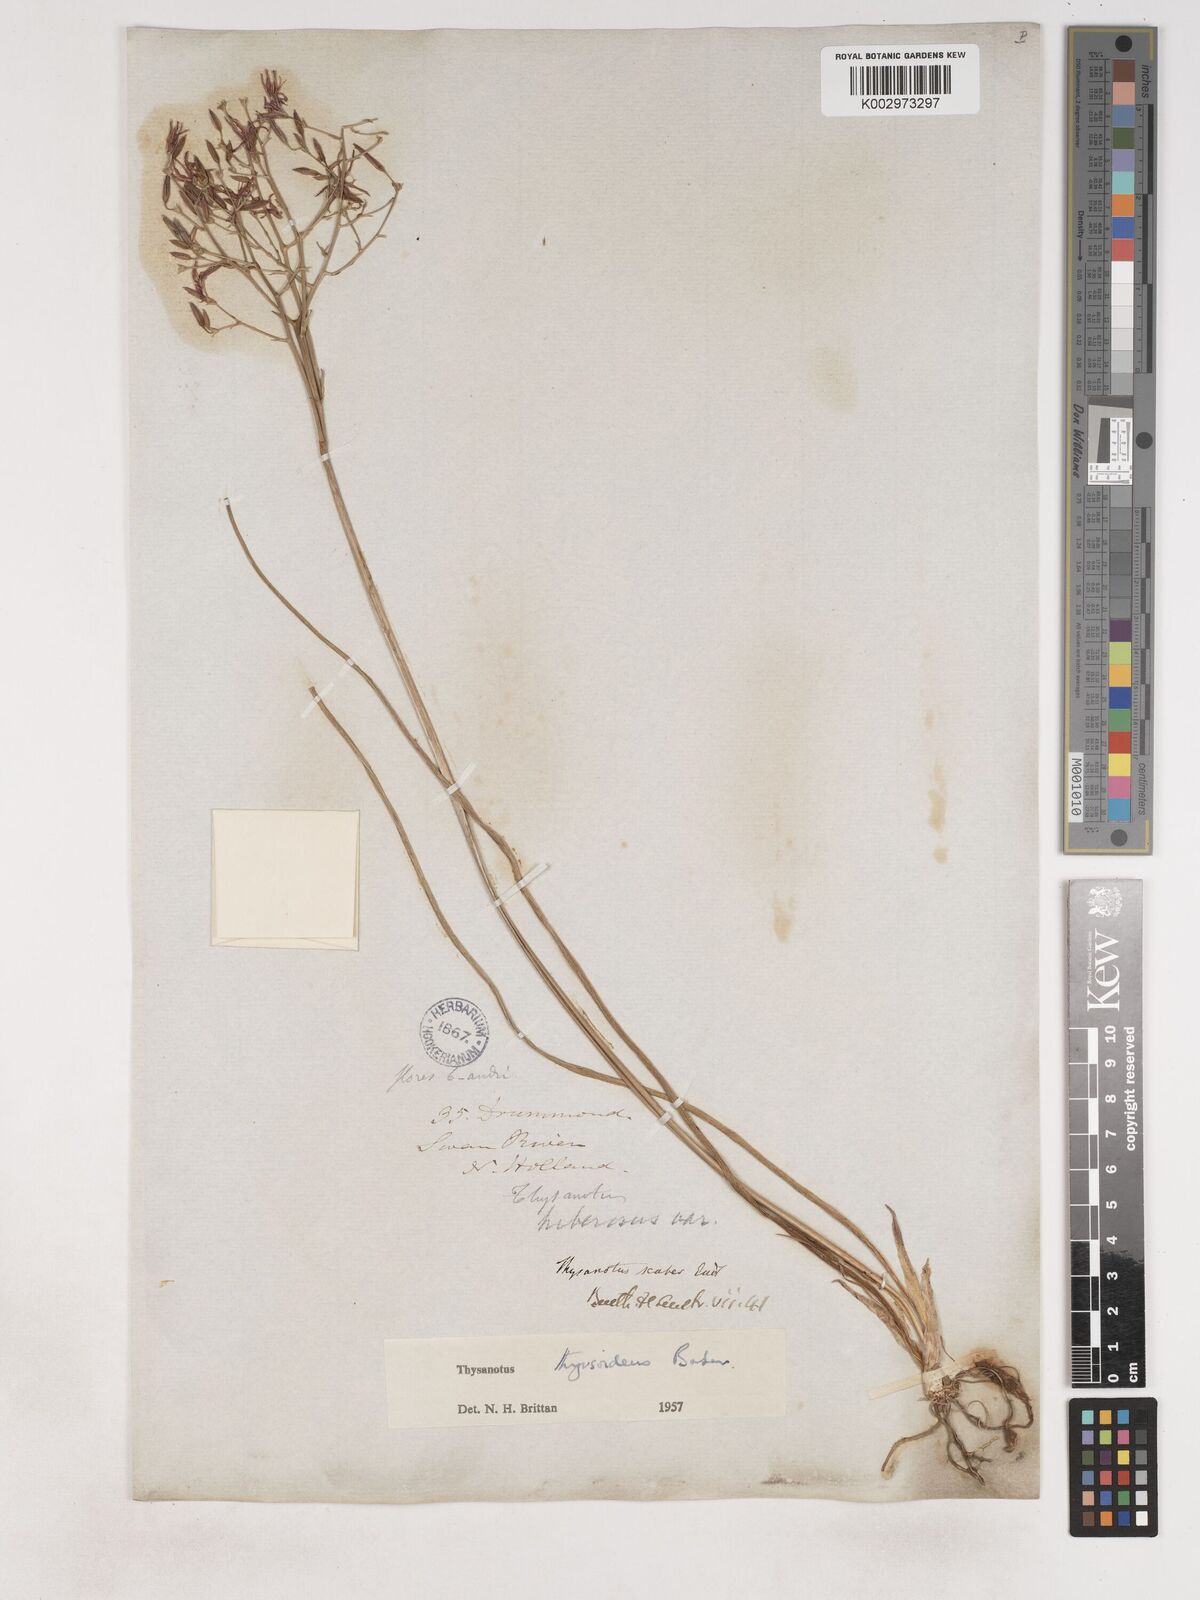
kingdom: Plantae
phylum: Tracheophyta
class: Liliopsida
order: Asparagales
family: Asparagaceae
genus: Thysanotus
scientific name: Thysanotus thyrsoideus
